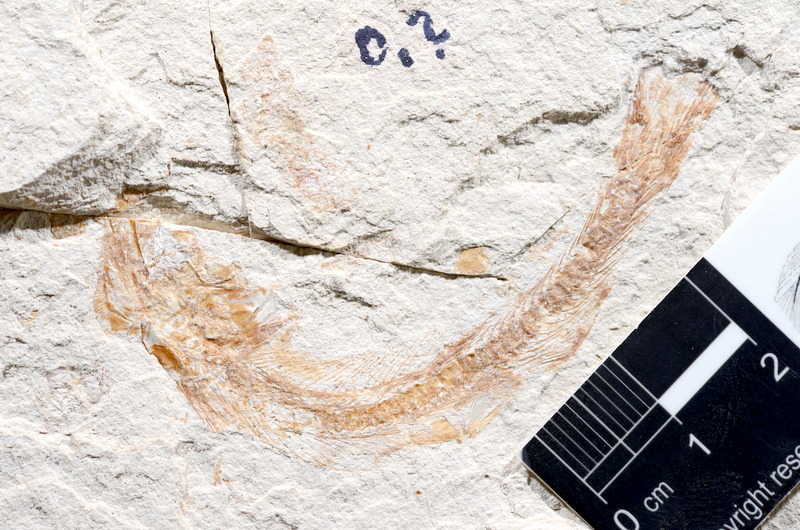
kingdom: Animalia
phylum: Chordata
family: Ascalaboidae
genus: Tharsis
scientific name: Tharsis dubius
